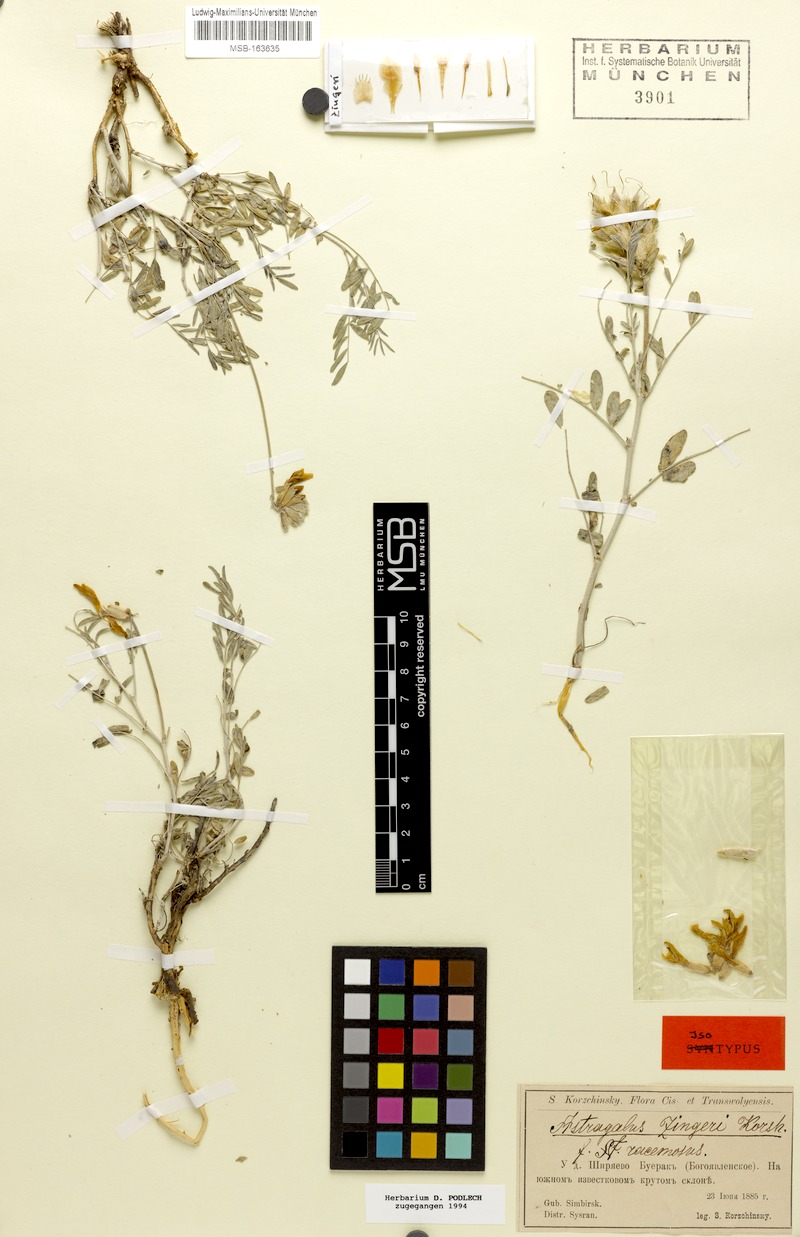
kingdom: Plantae
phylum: Tracheophyta
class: Magnoliopsida
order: Fabales
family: Fabaceae
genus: Astragalus
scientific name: Astragalus zingeri
